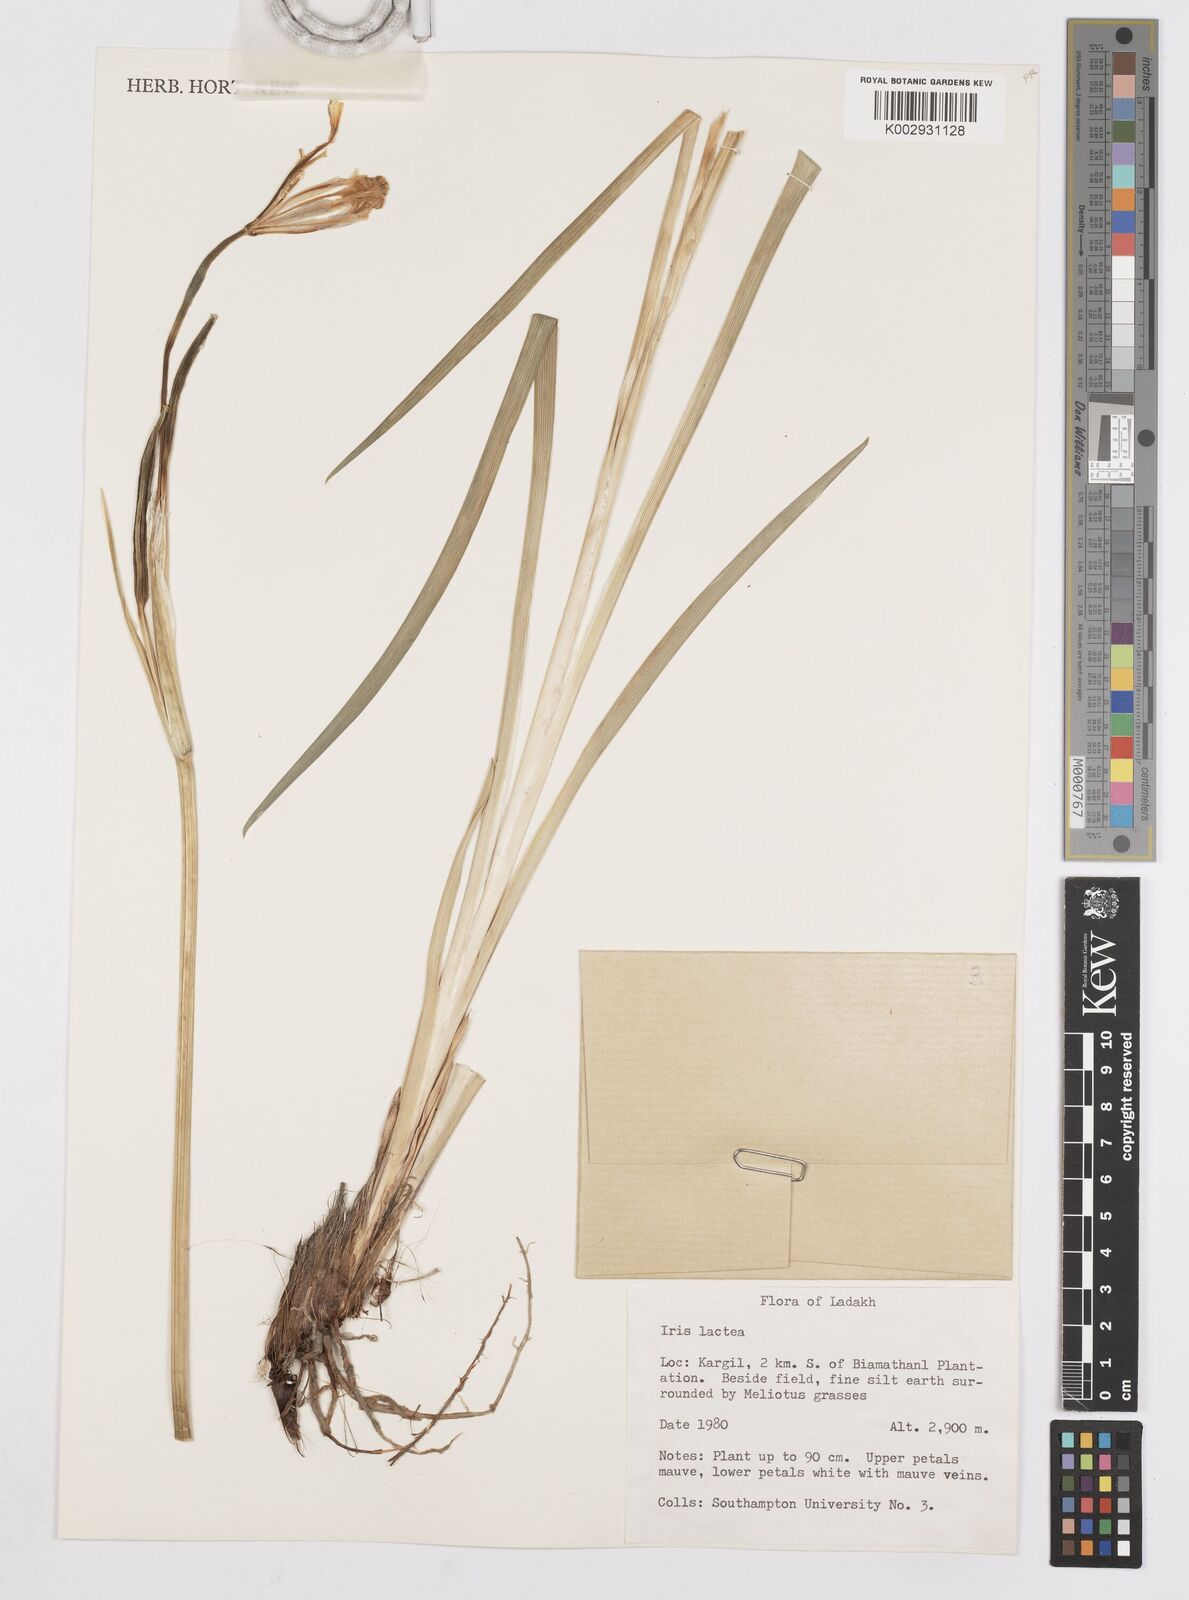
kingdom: Plantae
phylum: Tracheophyta
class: Liliopsida
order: Asparagales
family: Iridaceae
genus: Iris
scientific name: Iris lactea
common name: White-flower chinese iris
